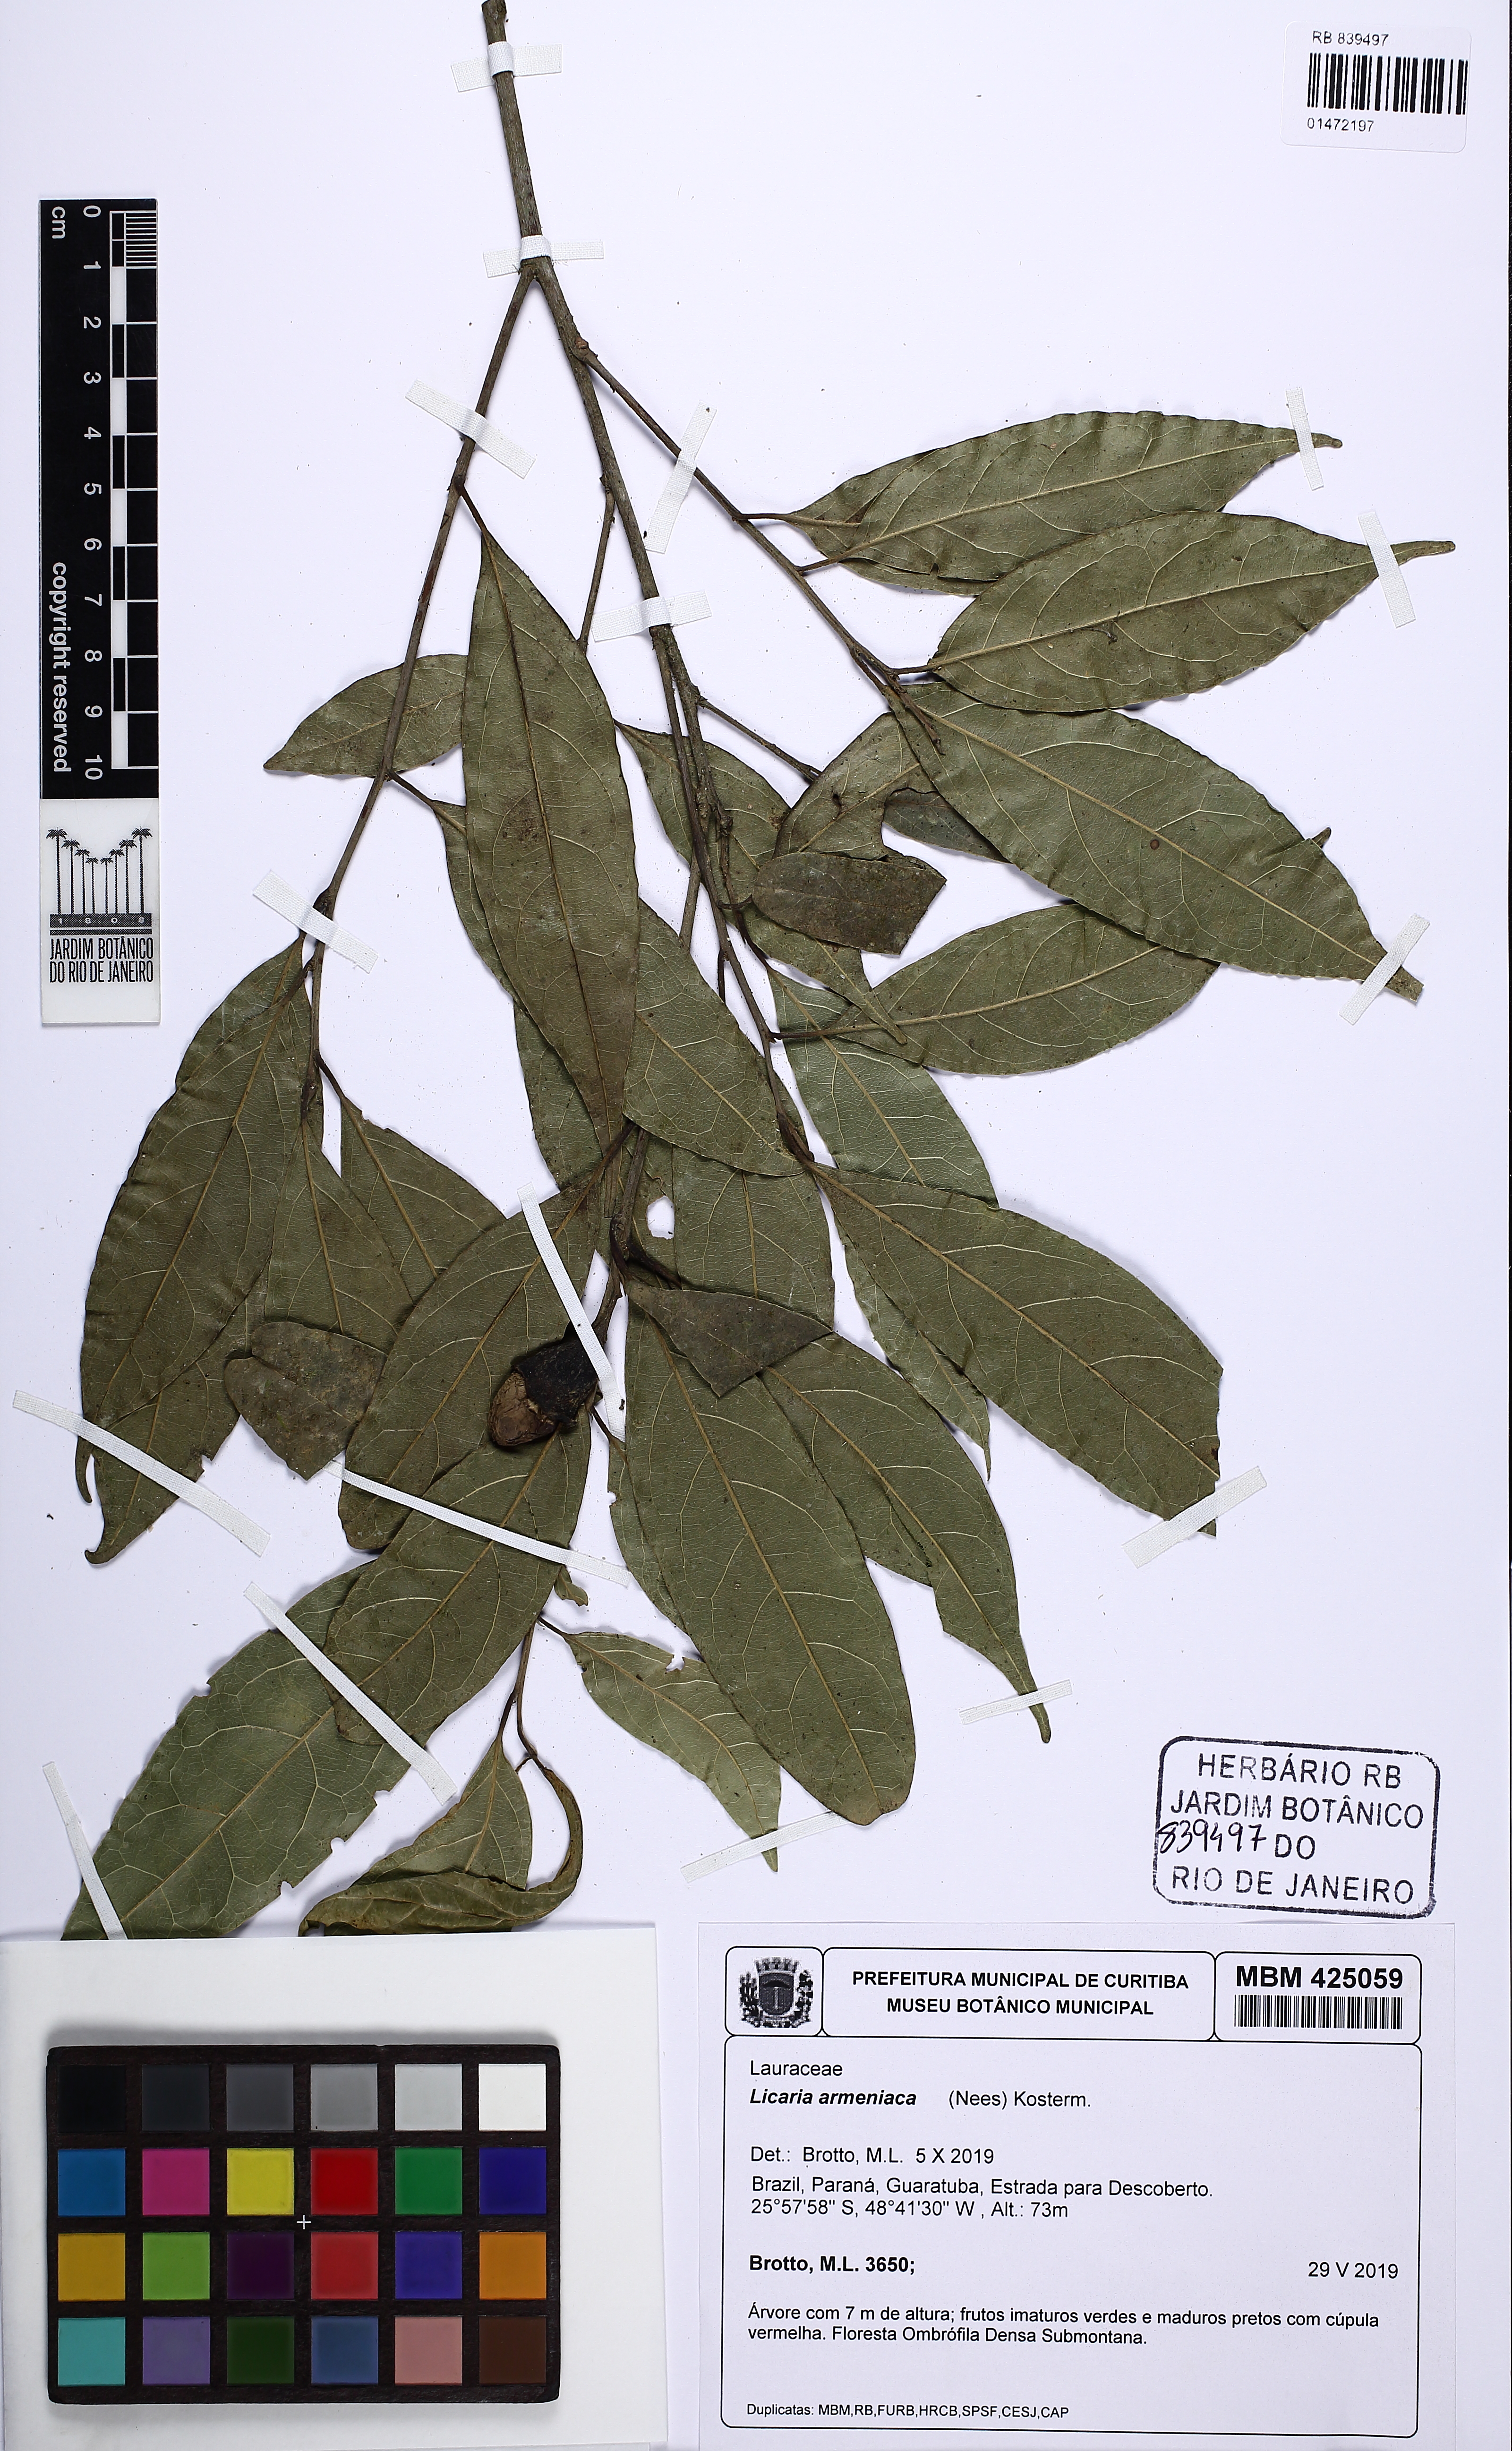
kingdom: Plantae
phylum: Tracheophyta
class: Magnoliopsida
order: Laurales
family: Lauraceae
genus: Licaria
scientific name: Licaria armeniaca
